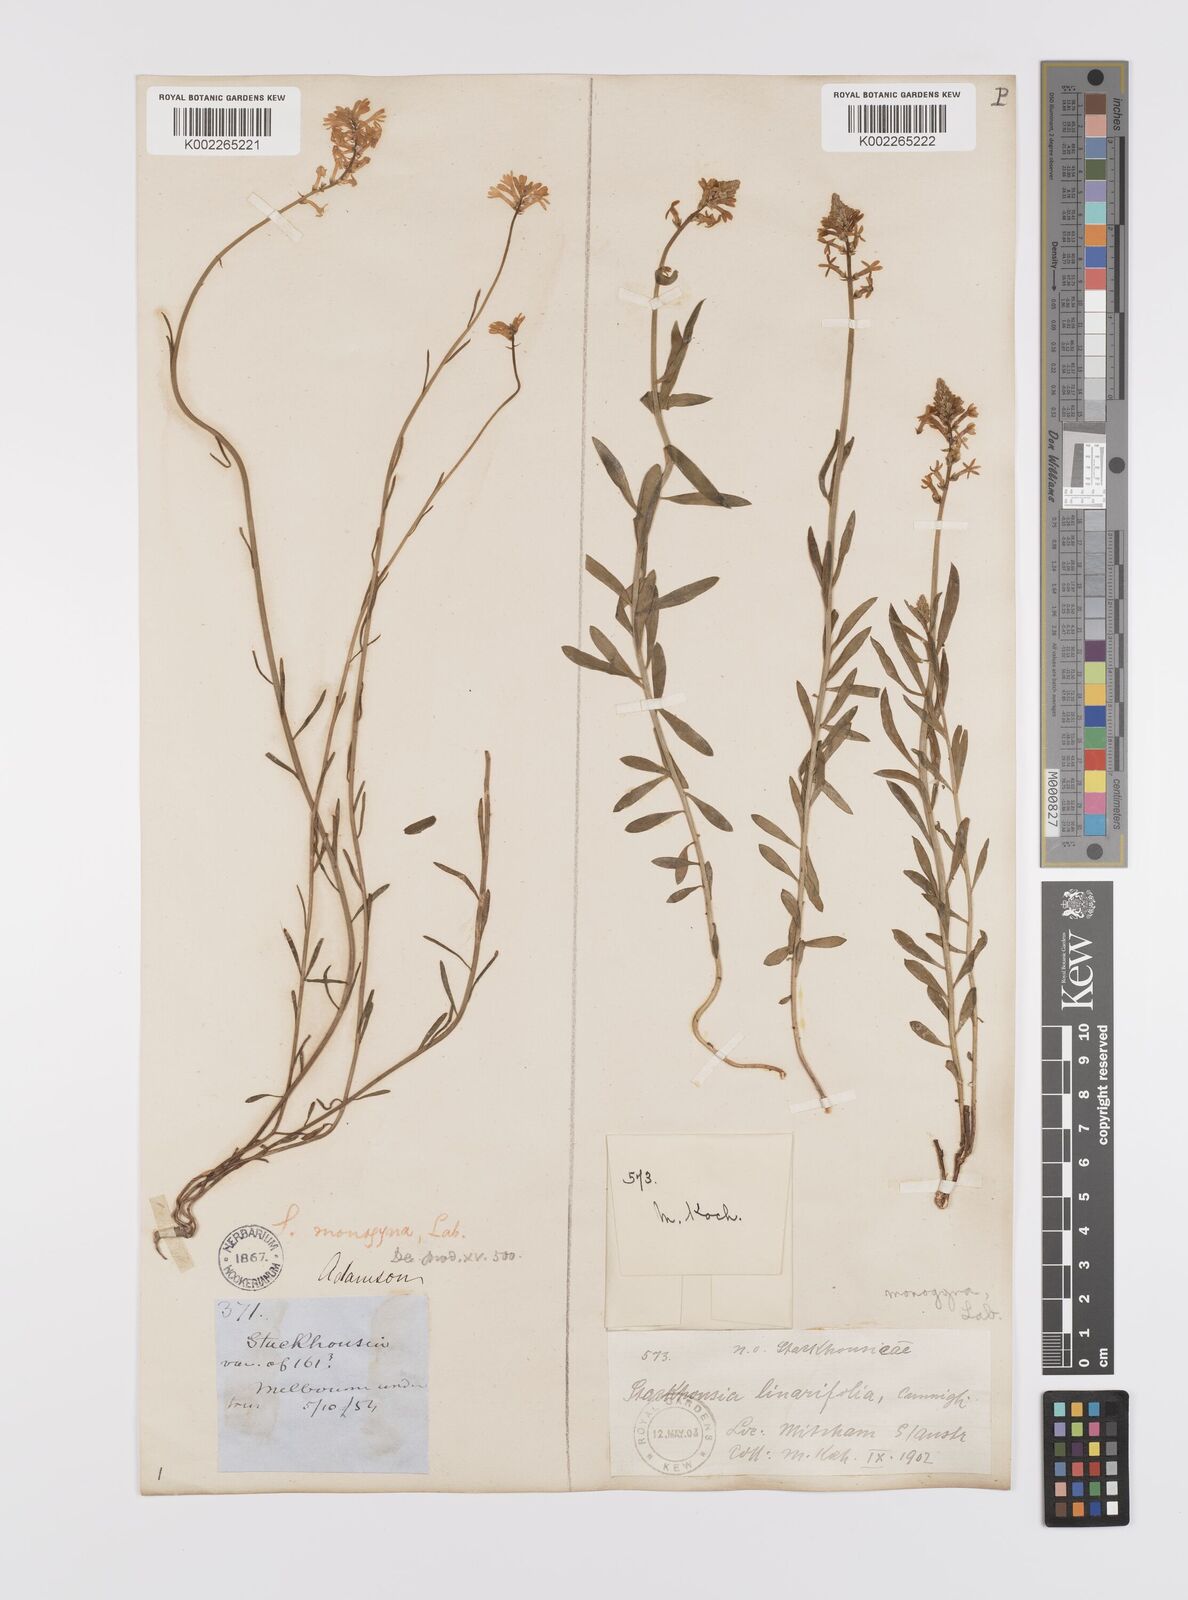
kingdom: Plantae
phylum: Tracheophyta
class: Magnoliopsida
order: Celastrales
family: Celastraceae
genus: Stackhousia
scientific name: Stackhousia monogyna
